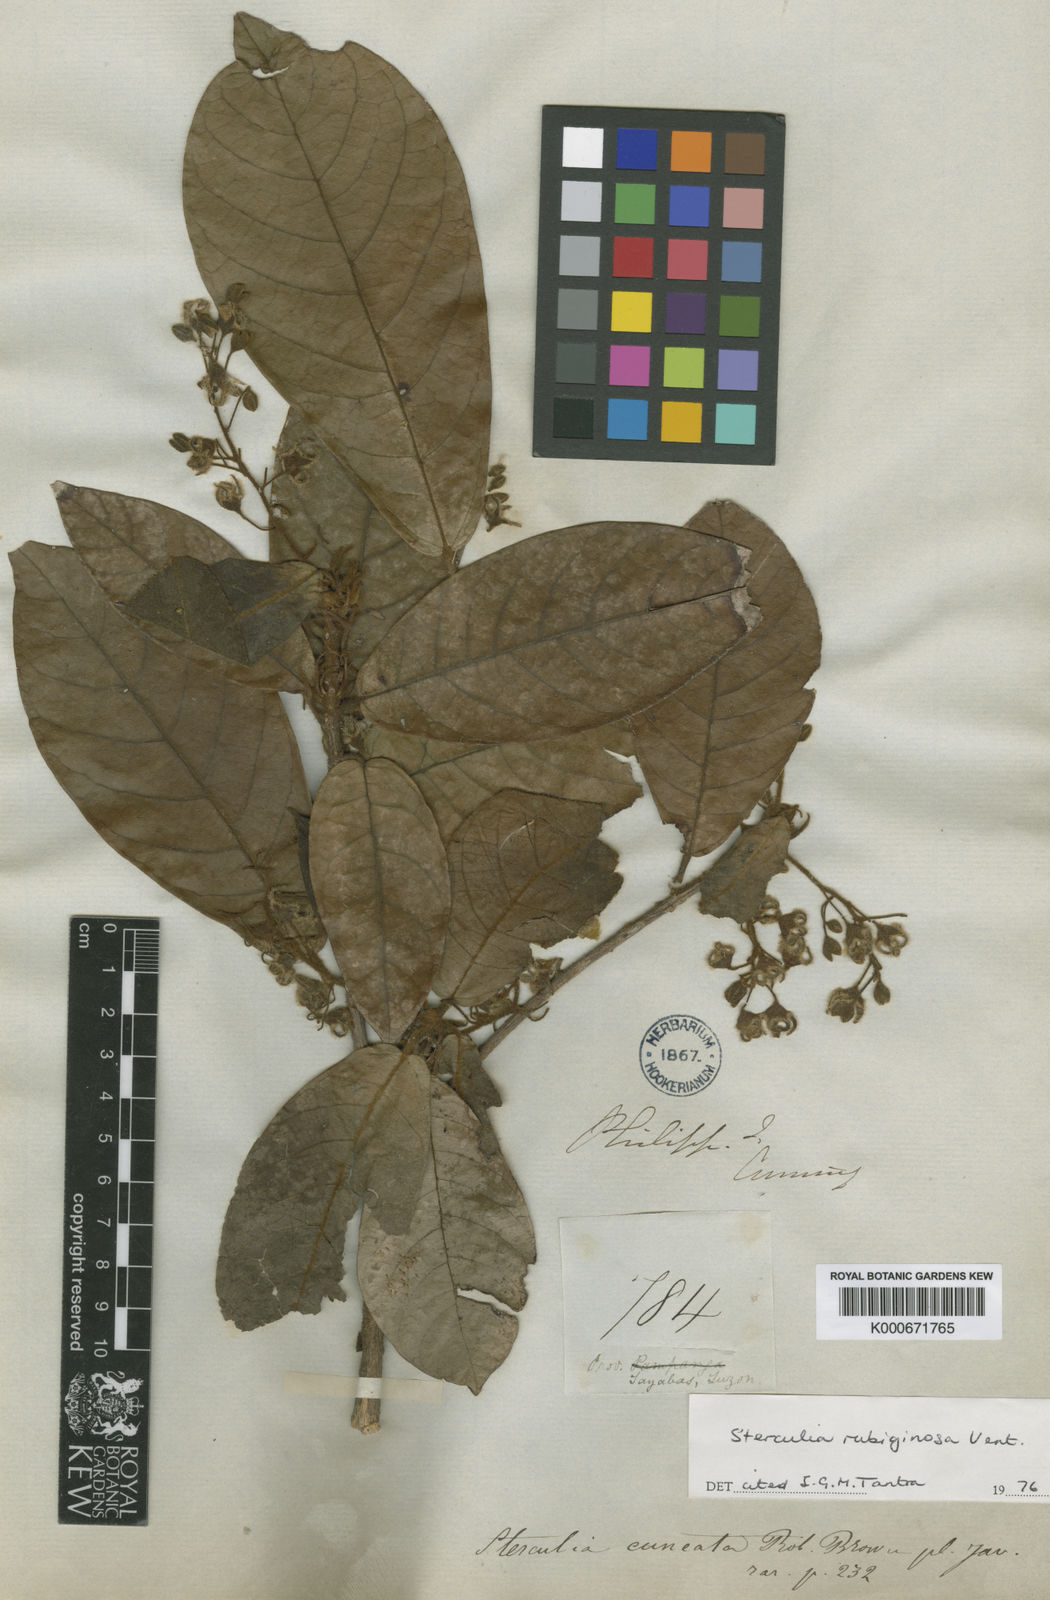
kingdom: Plantae
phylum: Tracheophyta
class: Magnoliopsida
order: Malvales
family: Malvaceae
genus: Sterculia
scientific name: Sterculia rubiginosa
